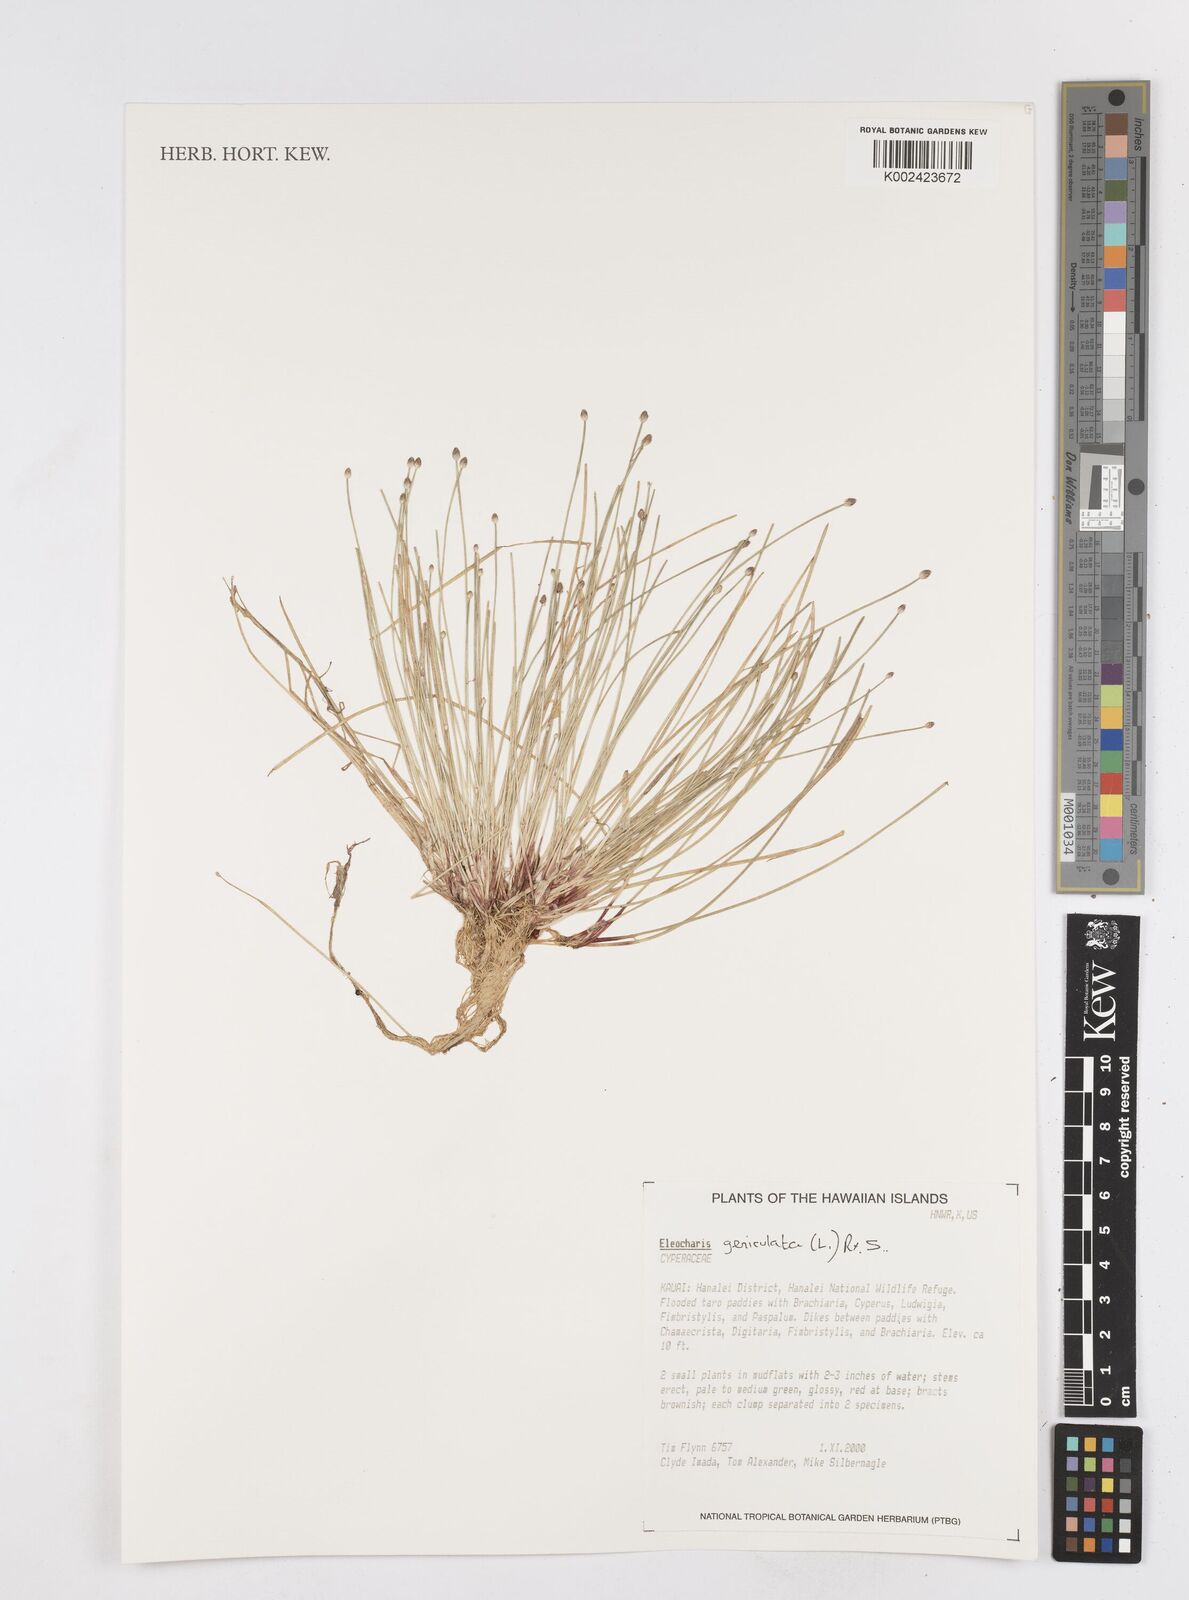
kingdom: Plantae
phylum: Tracheophyta
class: Liliopsida
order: Poales
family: Cyperaceae
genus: Eleocharis
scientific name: Eleocharis geniculata
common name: Canada spikesedge
